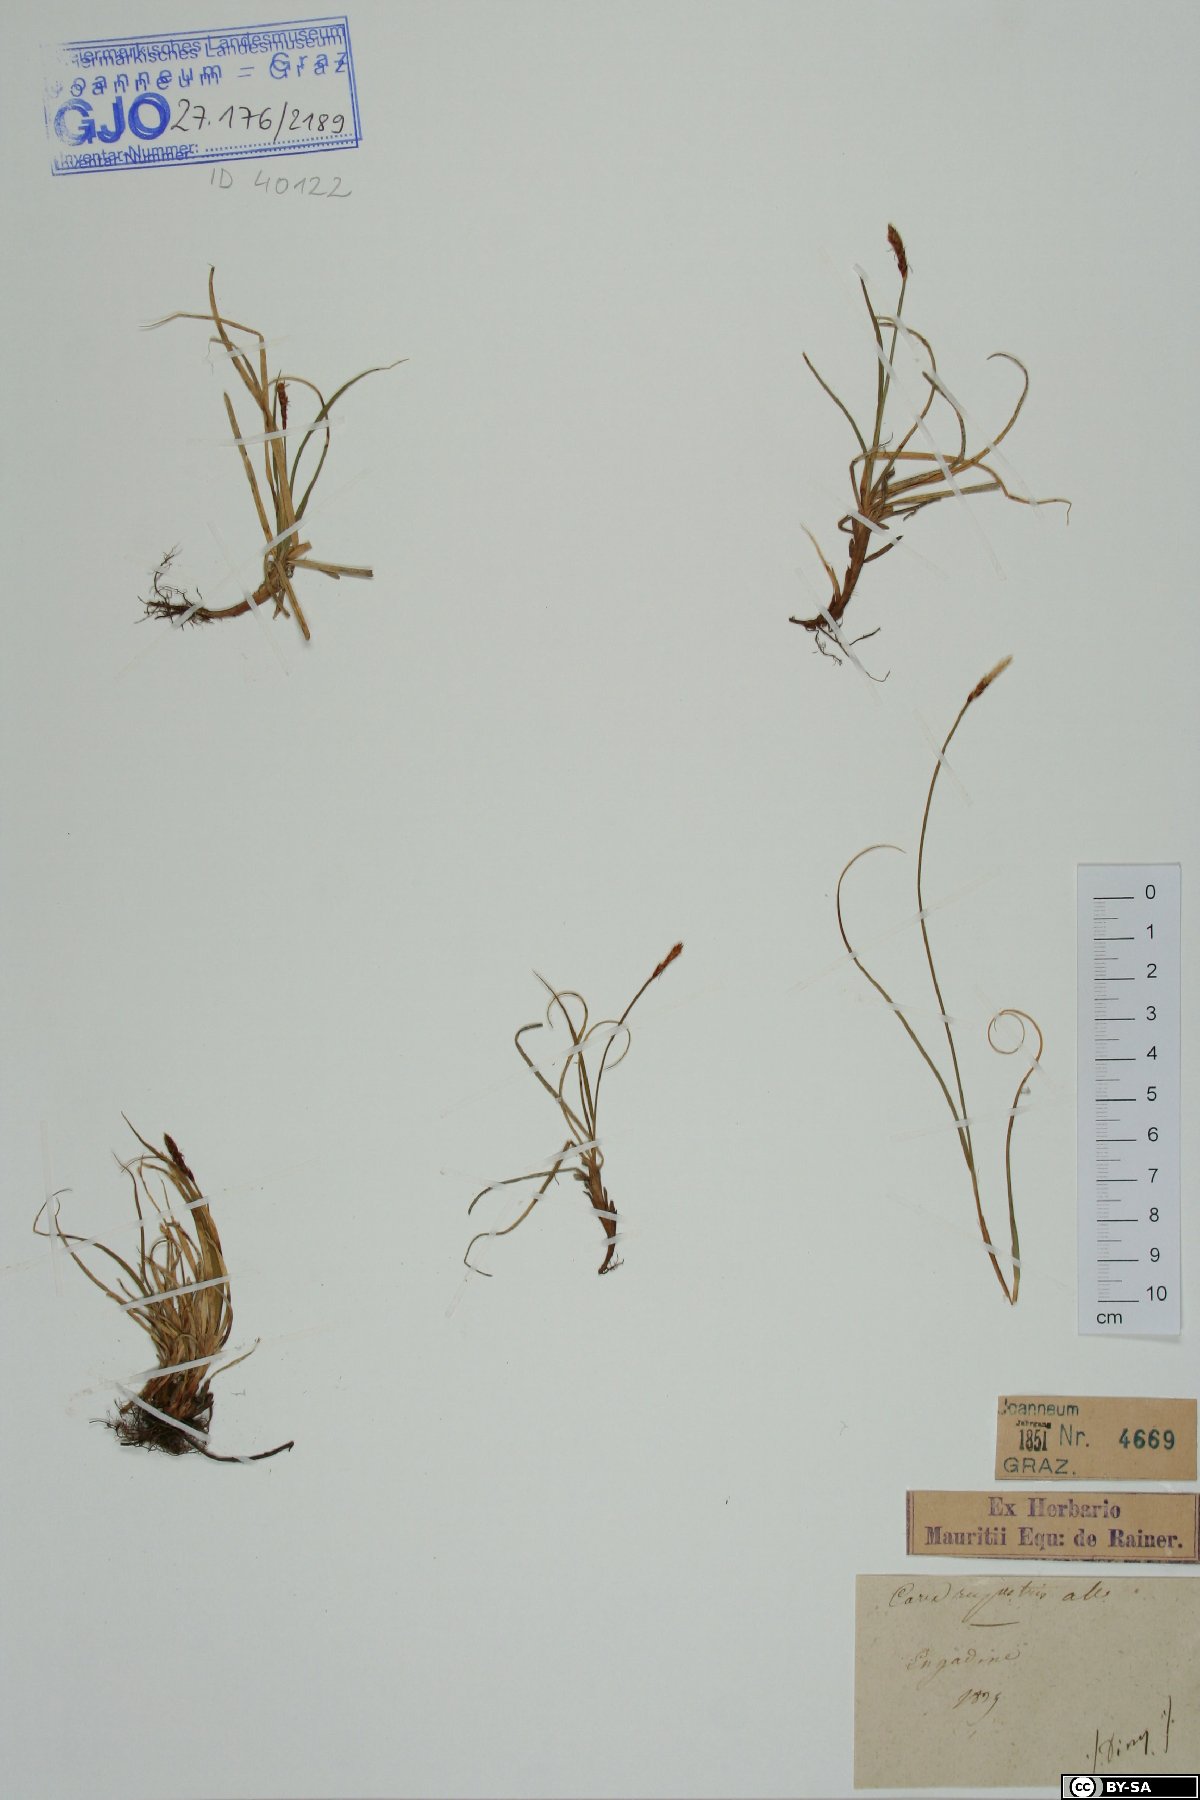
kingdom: Plantae
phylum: Tracheophyta
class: Liliopsida
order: Poales
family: Cyperaceae
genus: Carex
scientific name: Carex rupestris
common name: Rock sedge
